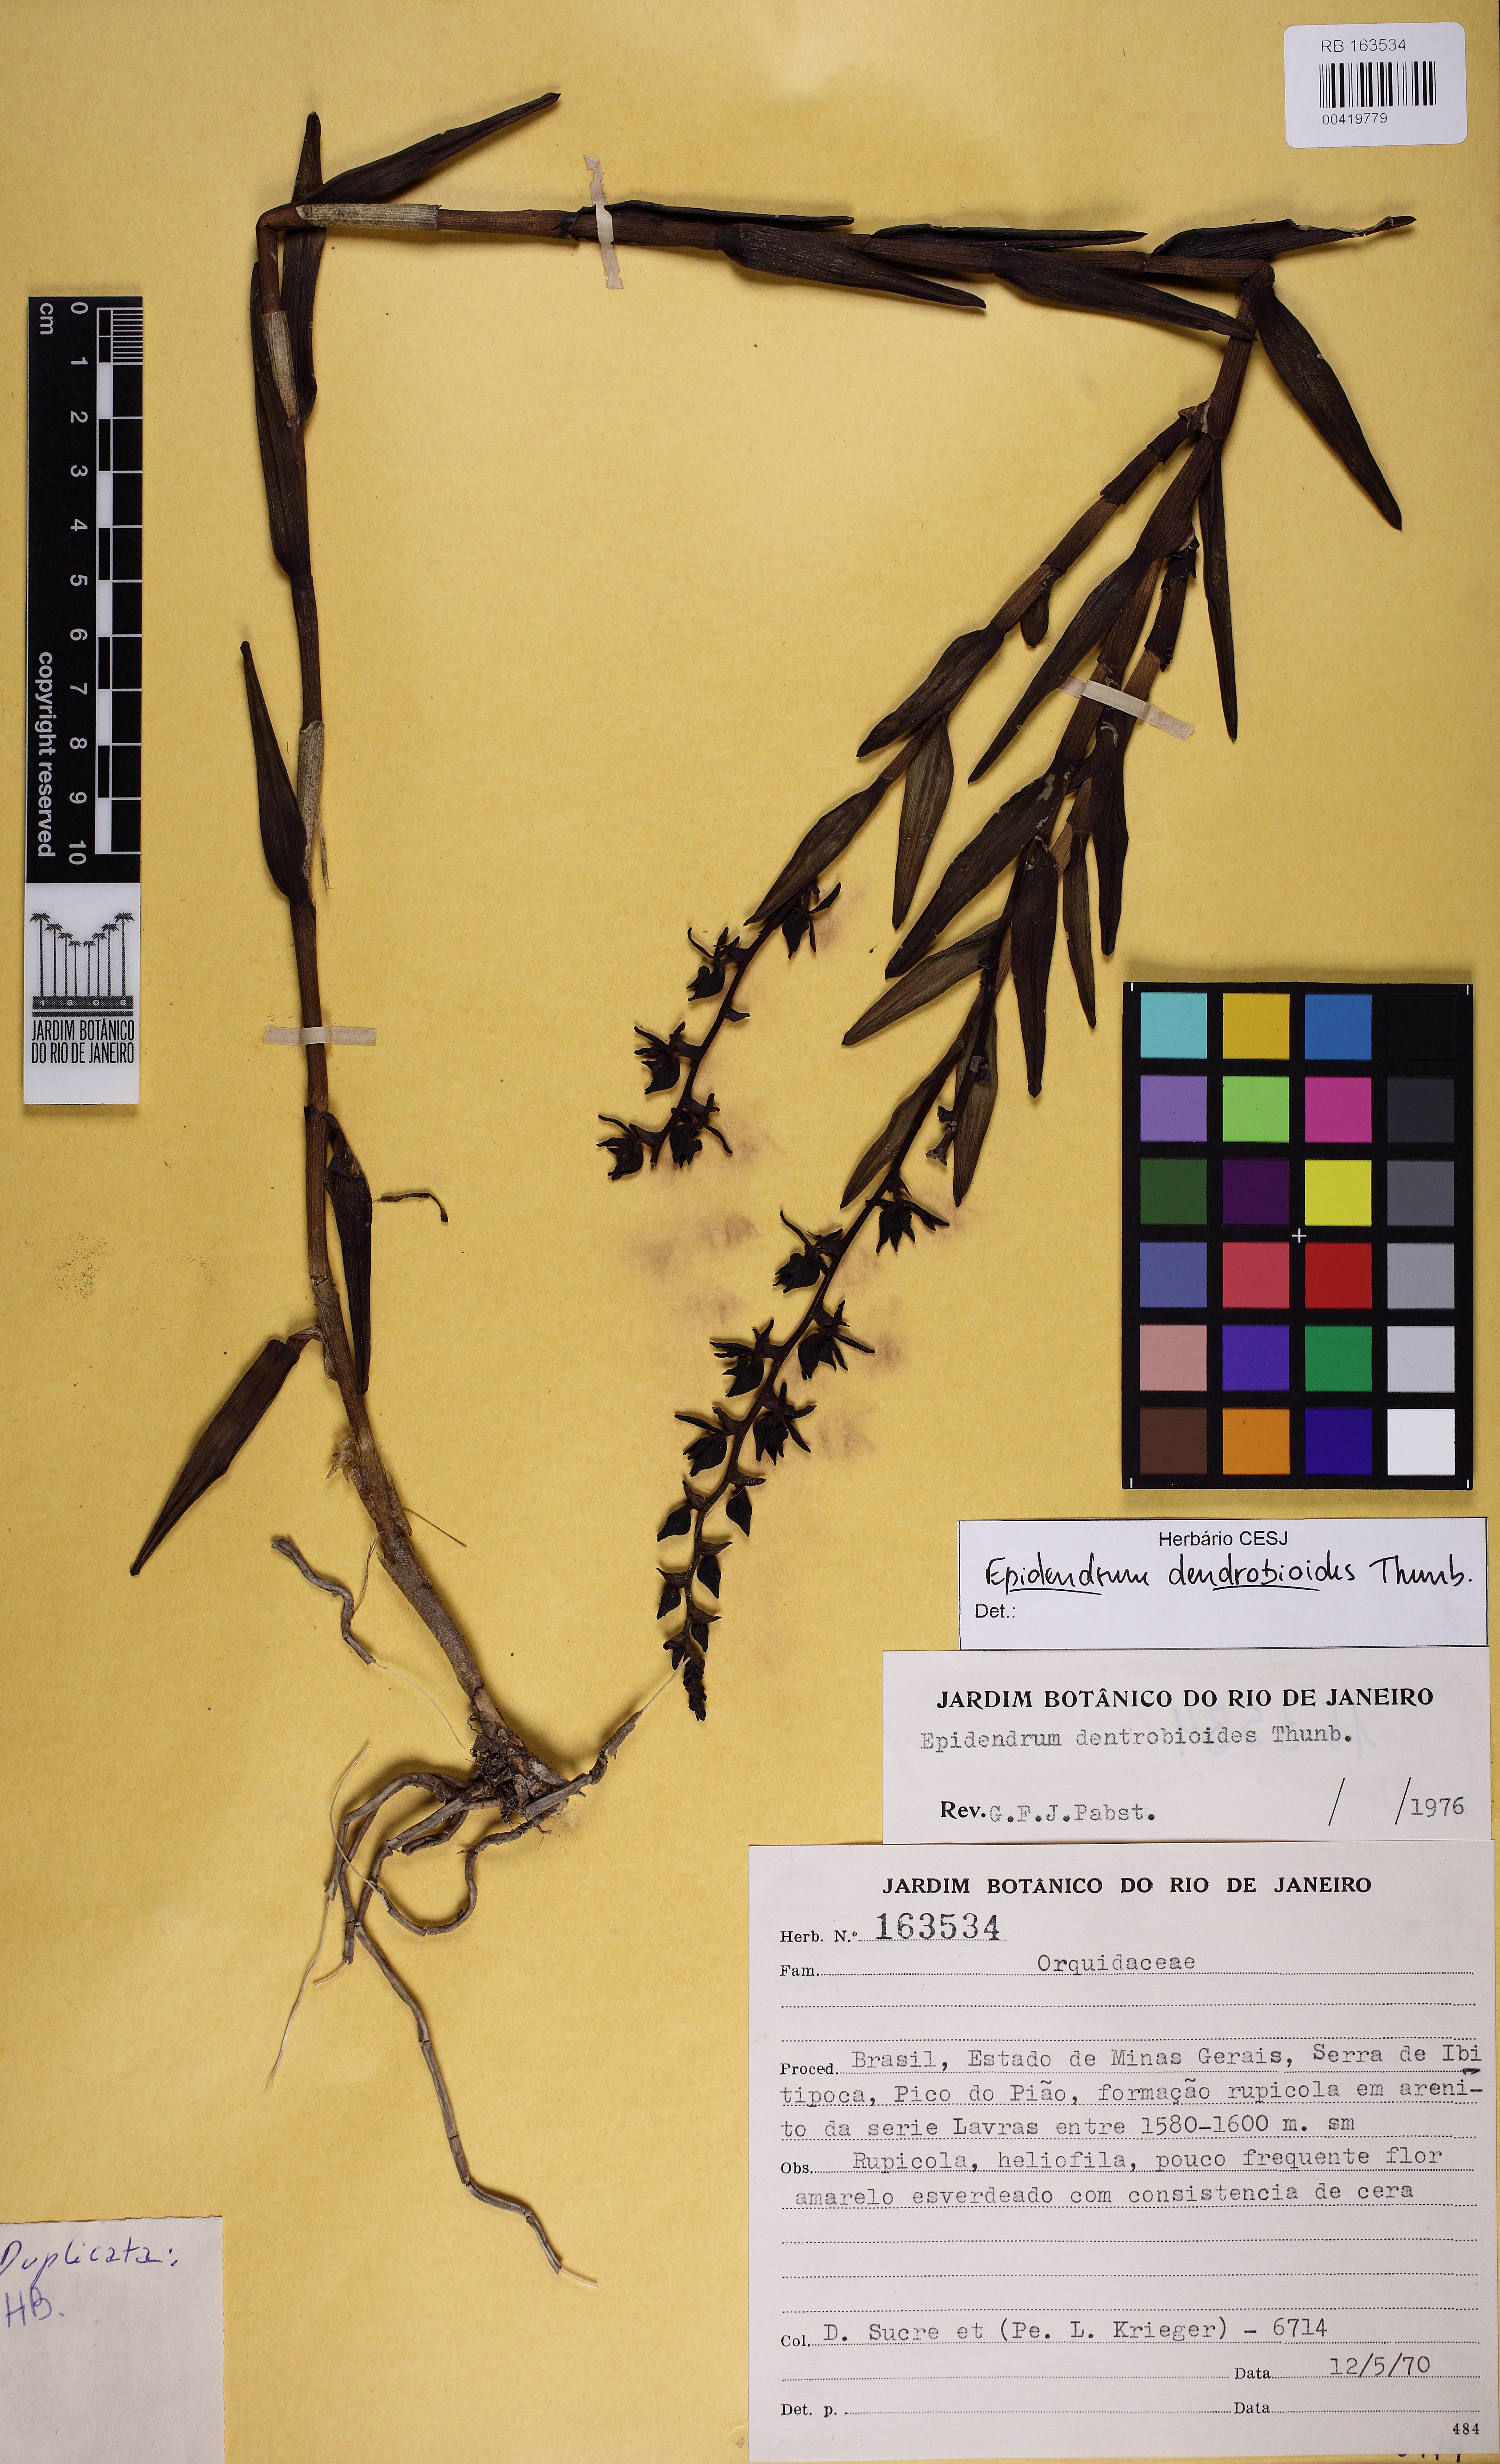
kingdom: Plantae
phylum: Tracheophyta
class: Liliopsida
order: Asparagales
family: Orchidaceae
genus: Epidendrum
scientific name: Epidendrum dendrobioides
